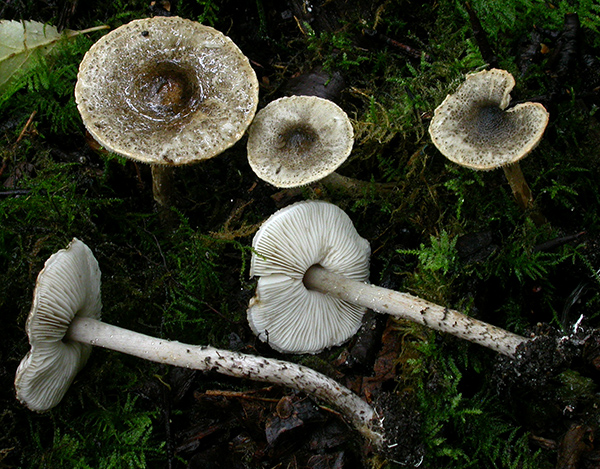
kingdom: Fungi
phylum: Basidiomycota
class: Agaricomycetes
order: Agaricales
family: Agaricaceae
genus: Lepiota
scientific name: Lepiota griseovirens
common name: grågrøn parasolhat
